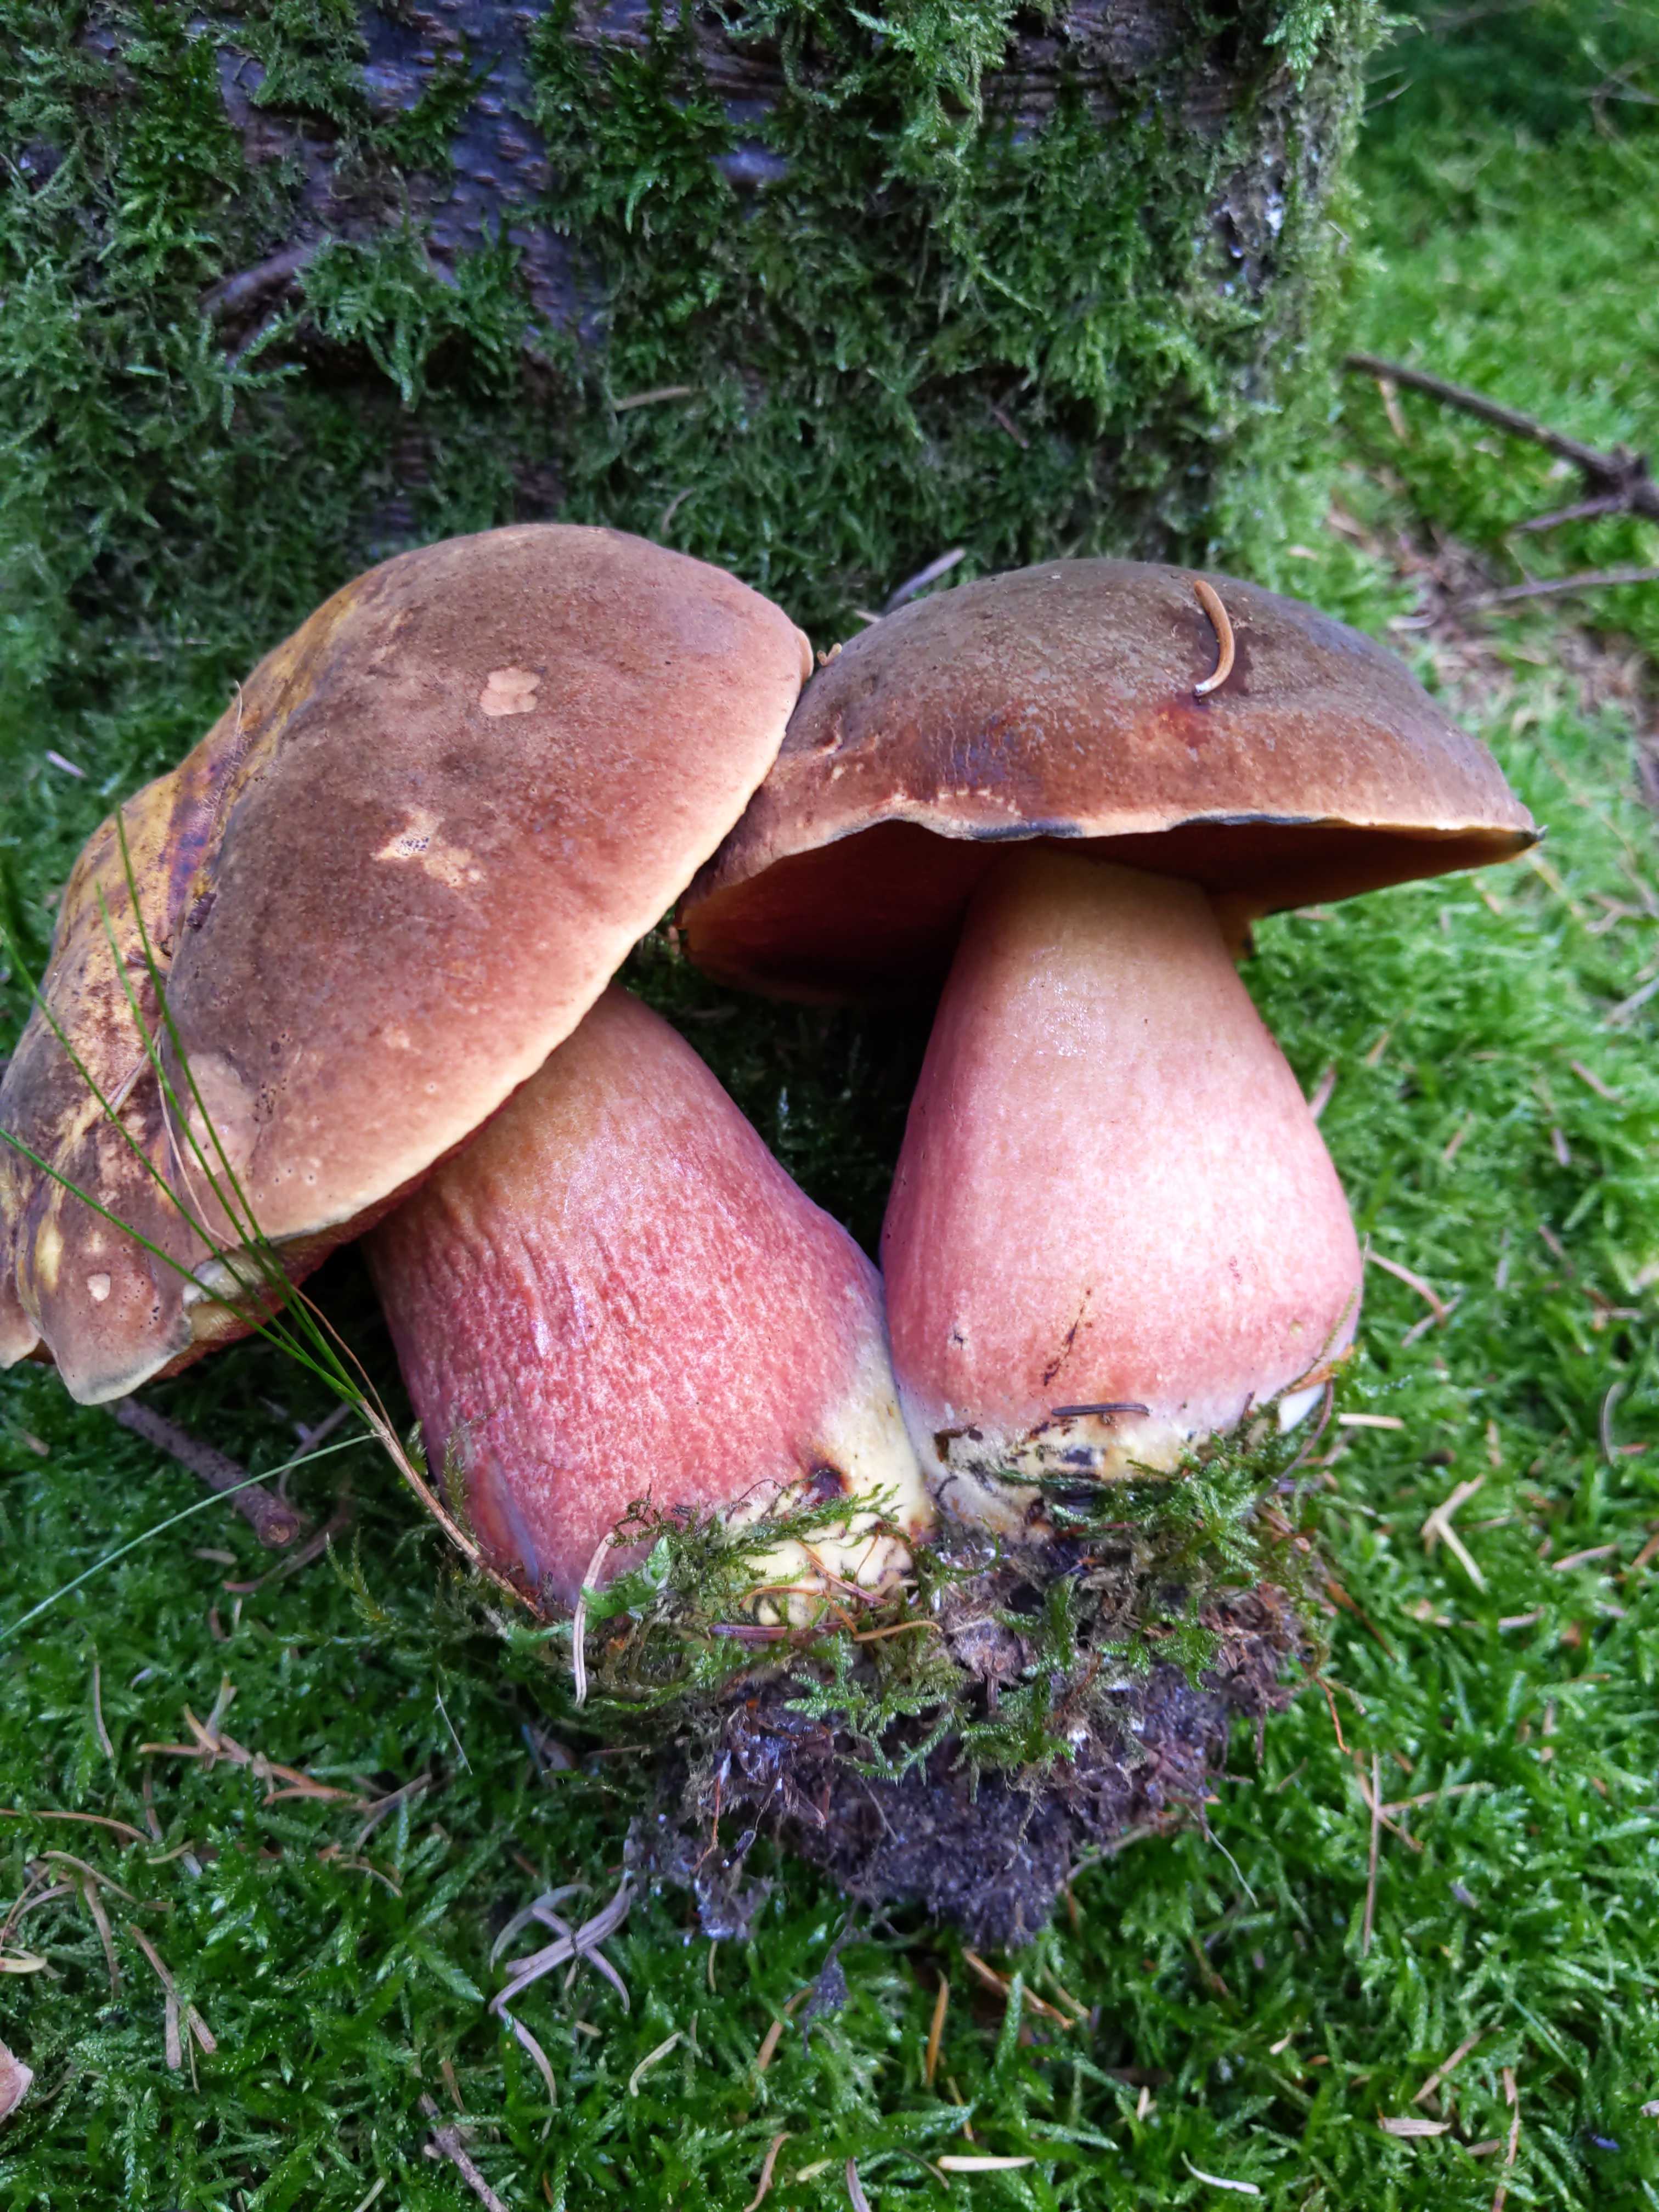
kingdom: Fungi
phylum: Basidiomycota
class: Agaricomycetes
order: Boletales
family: Boletaceae
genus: Neoboletus
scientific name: Neoboletus erythropus
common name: punktstokket indigorørhat
